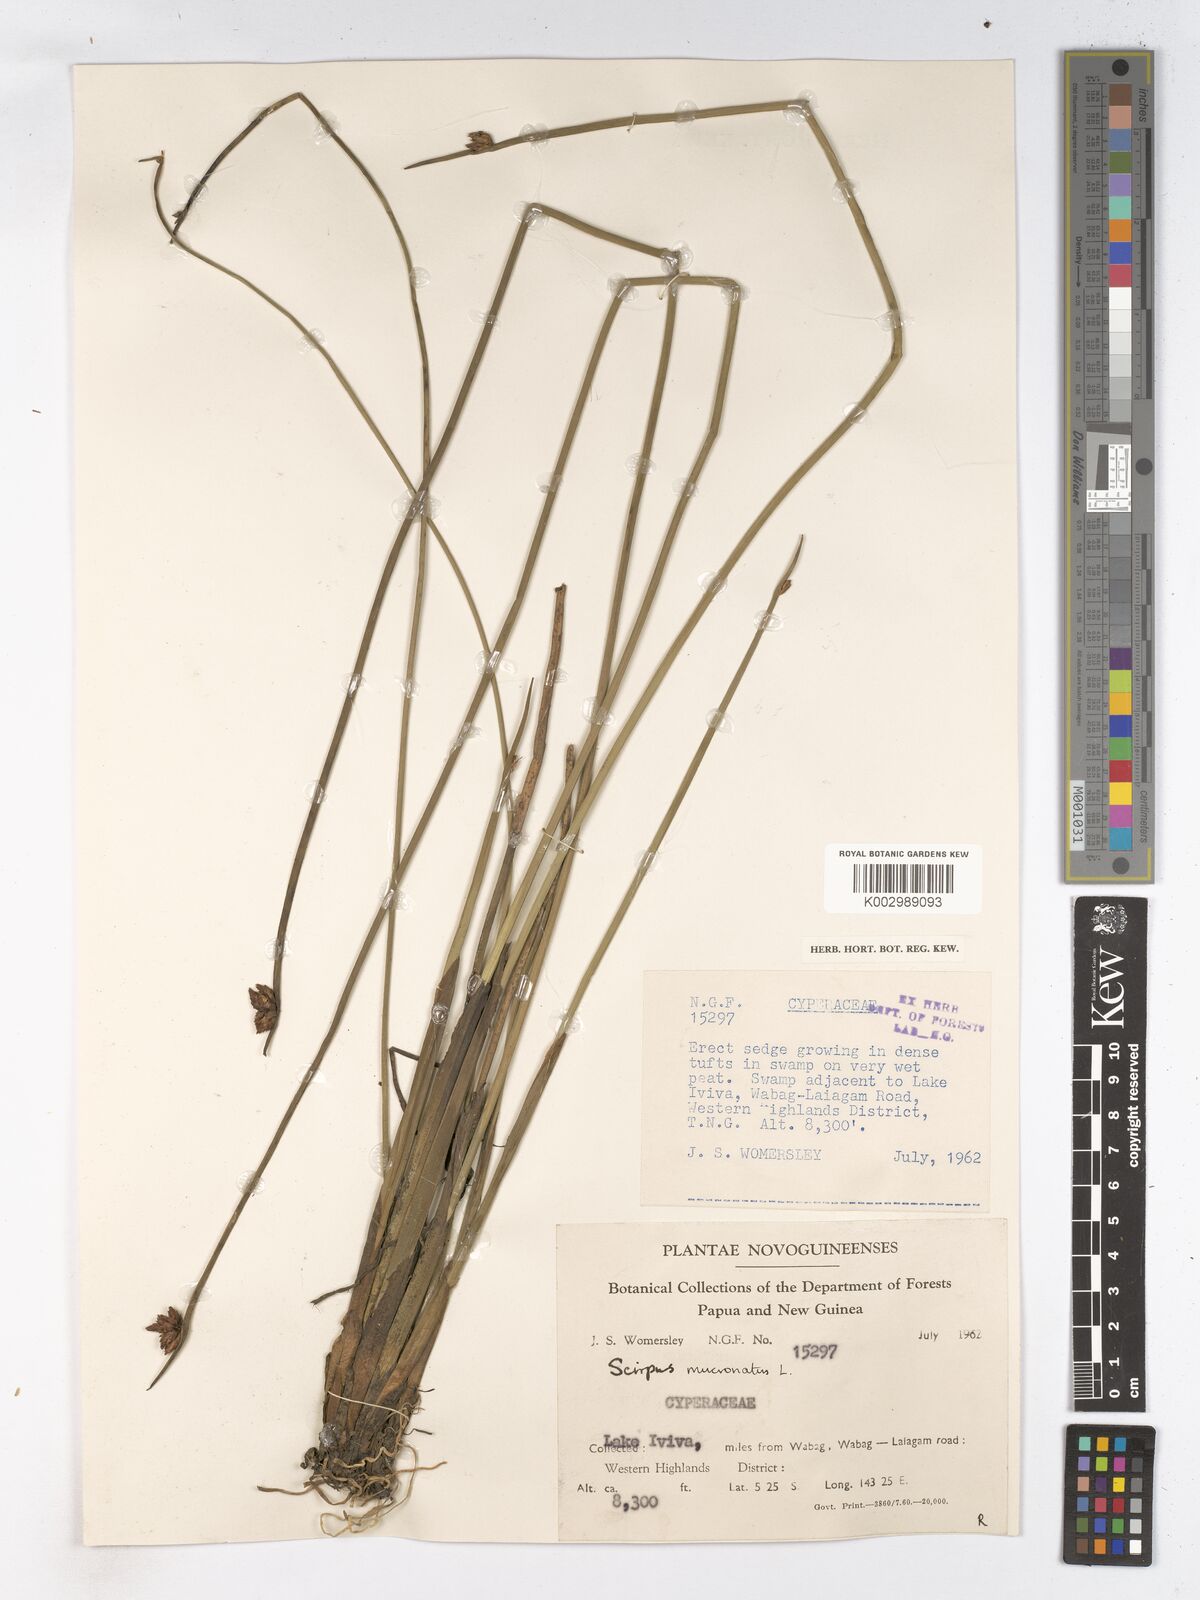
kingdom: Plantae
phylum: Tracheophyta
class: Liliopsida
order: Poales
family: Cyperaceae
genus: Schoenoplectiella
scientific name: Schoenoplectiella mucronata
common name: Bog bulrush
